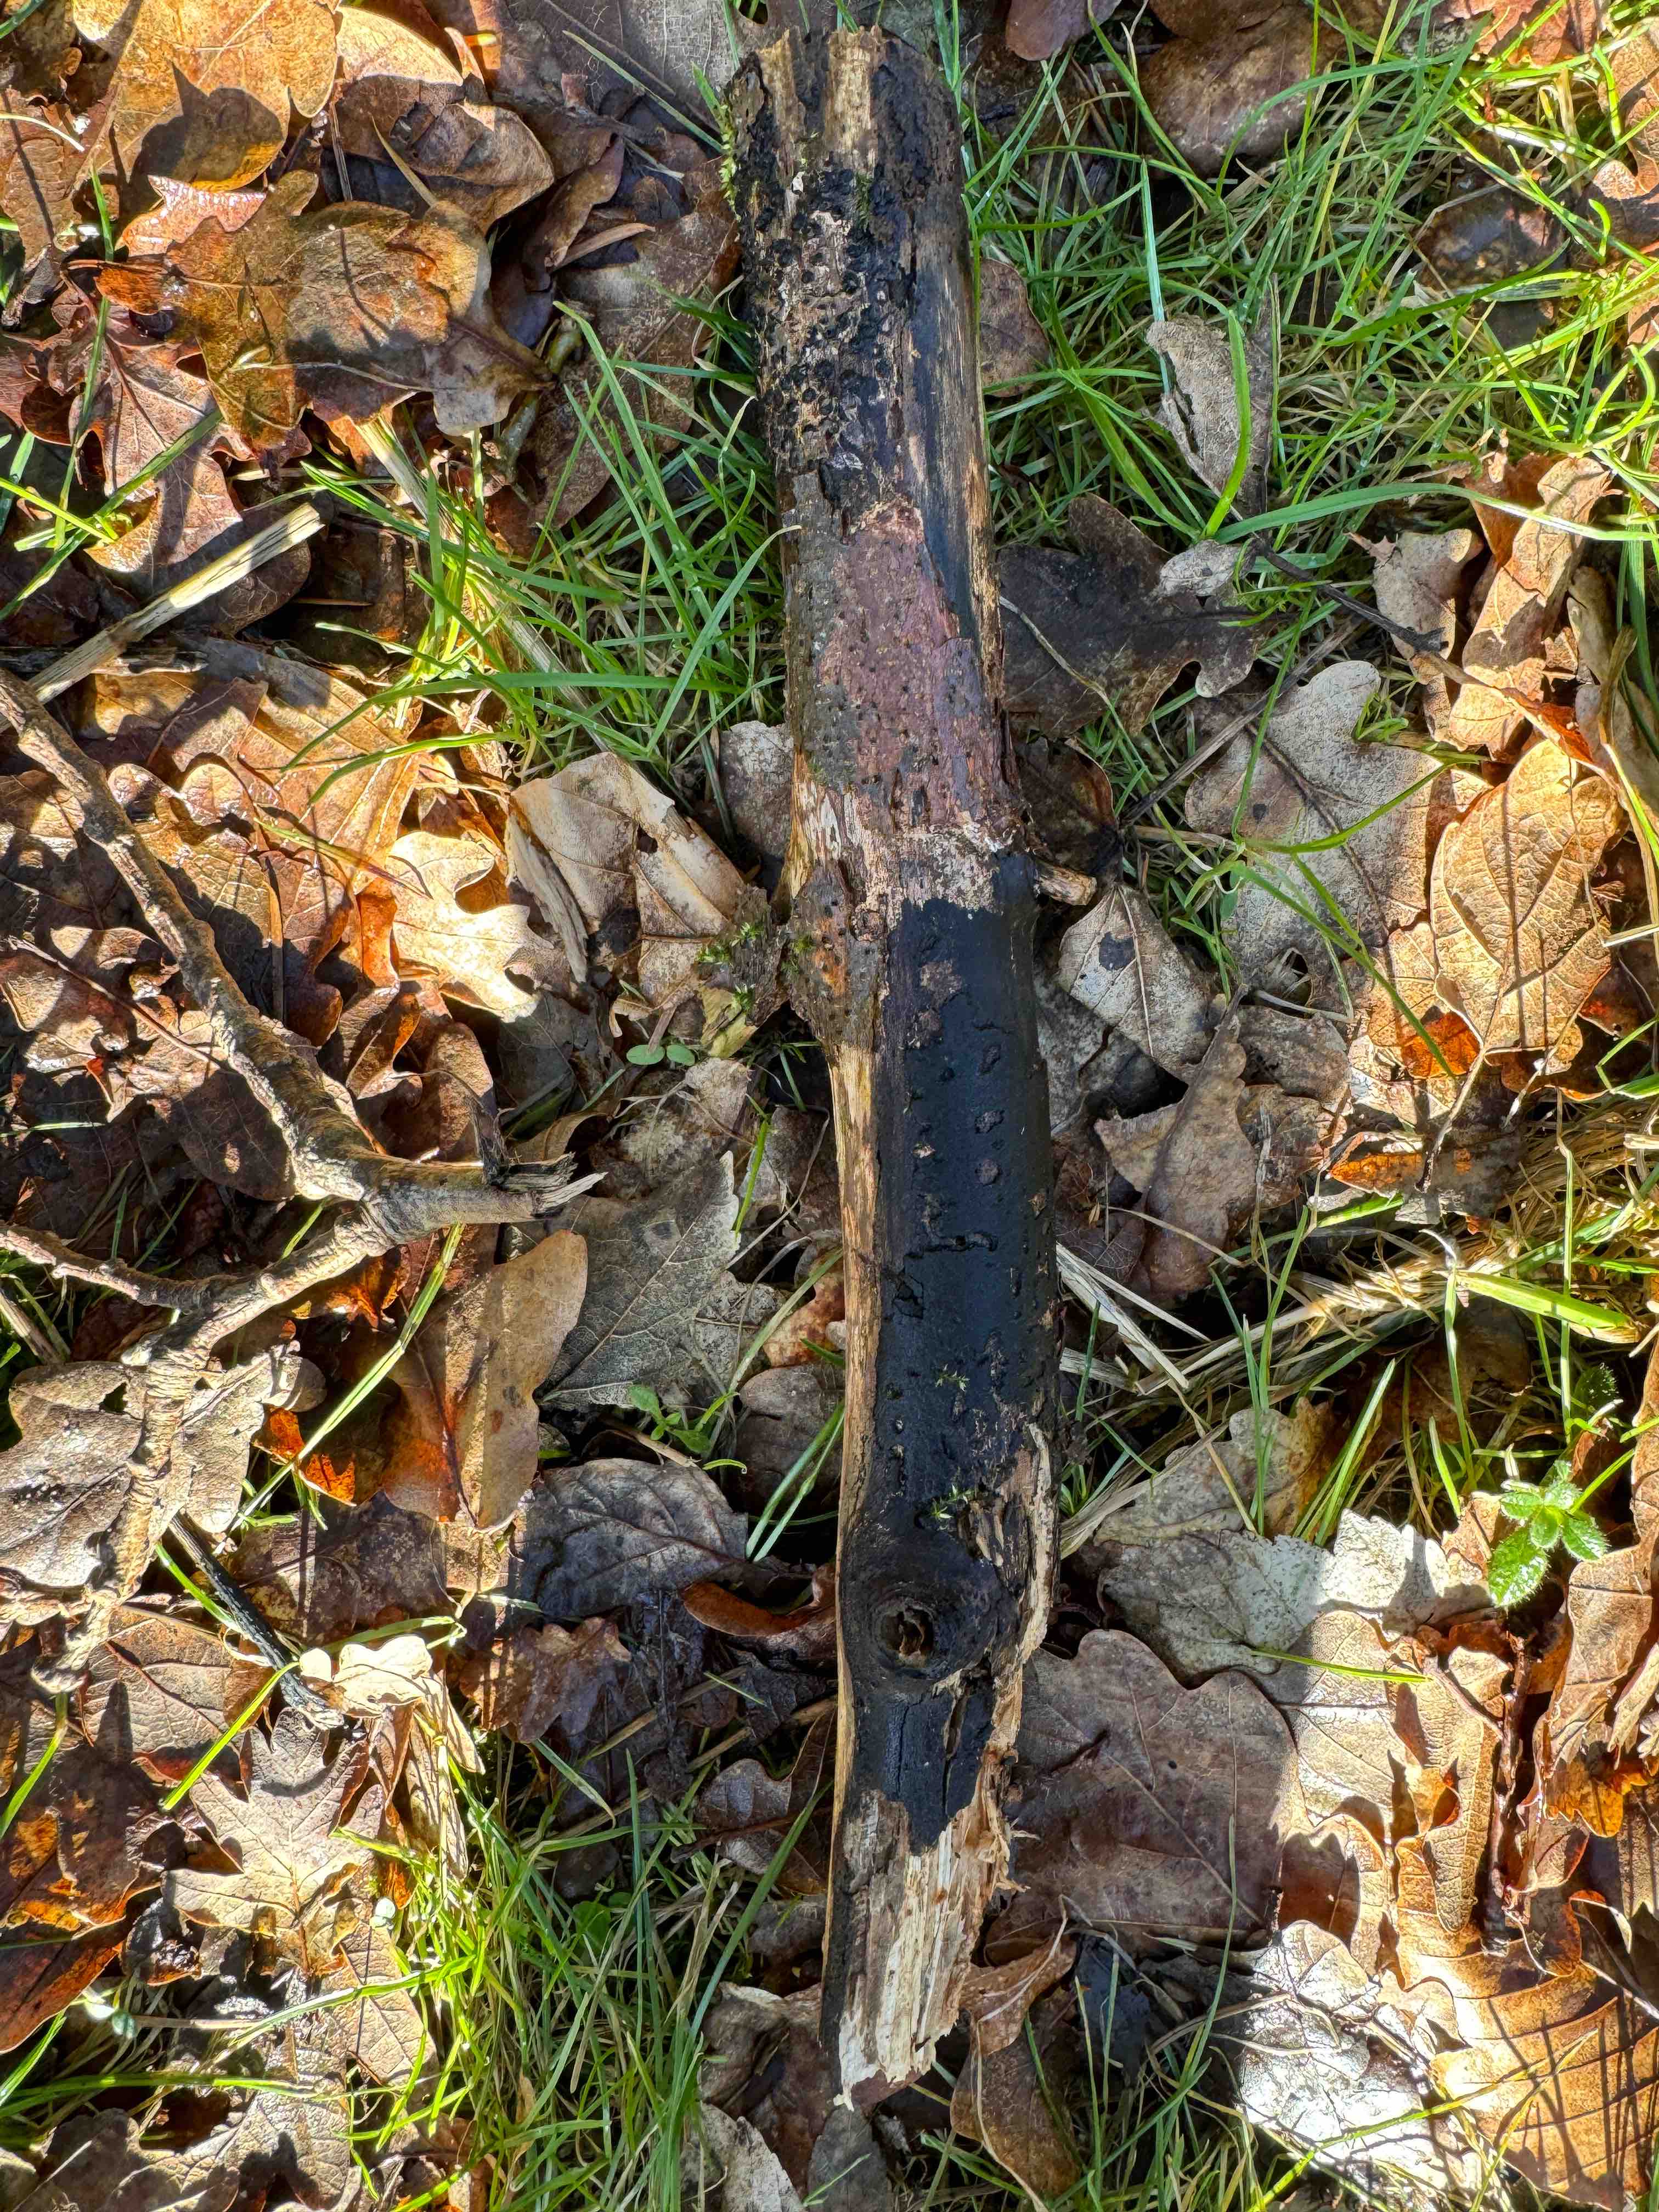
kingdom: Fungi
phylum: Ascomycota
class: Dothideomycetes
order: Pleosporales
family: Massariaceae
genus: Massaria
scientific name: Massaria
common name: kulvulkan
